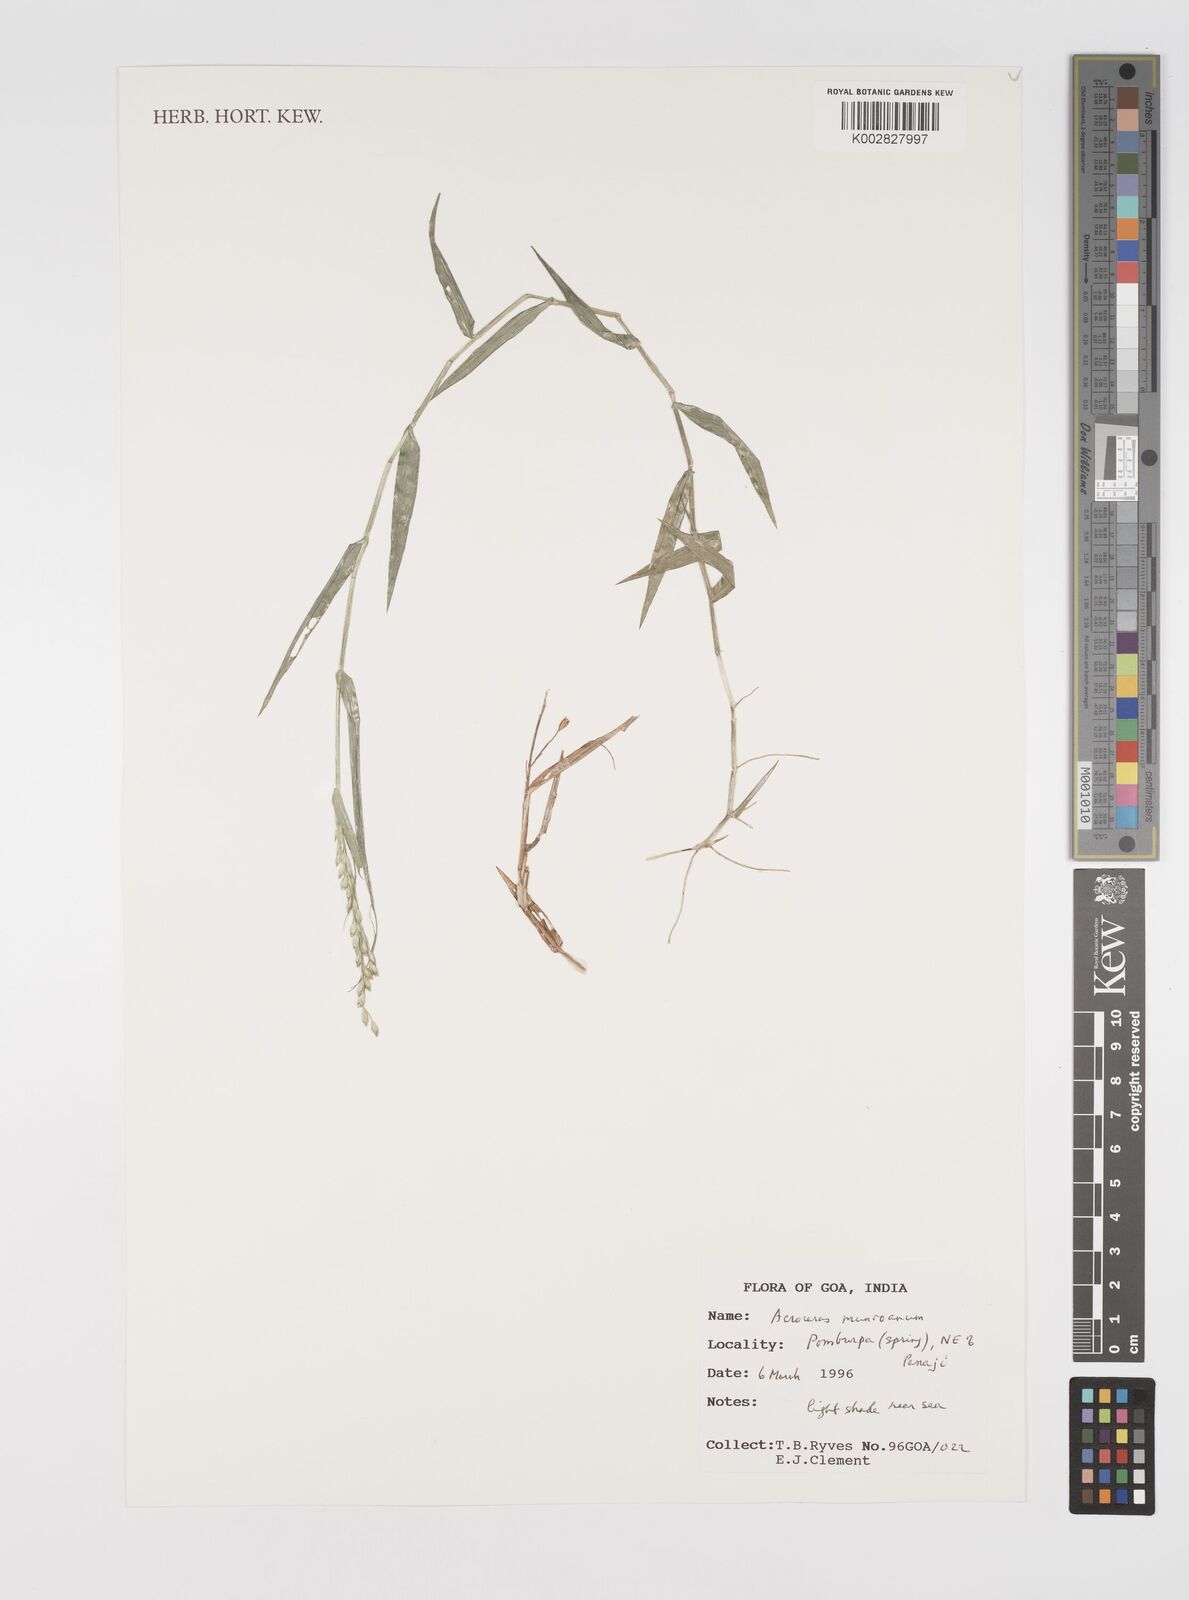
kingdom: Plantae
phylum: Tracheophyta
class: Liliopsida
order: Poales
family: Poaceae
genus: Acroceras
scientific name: Acroceras munroanum
